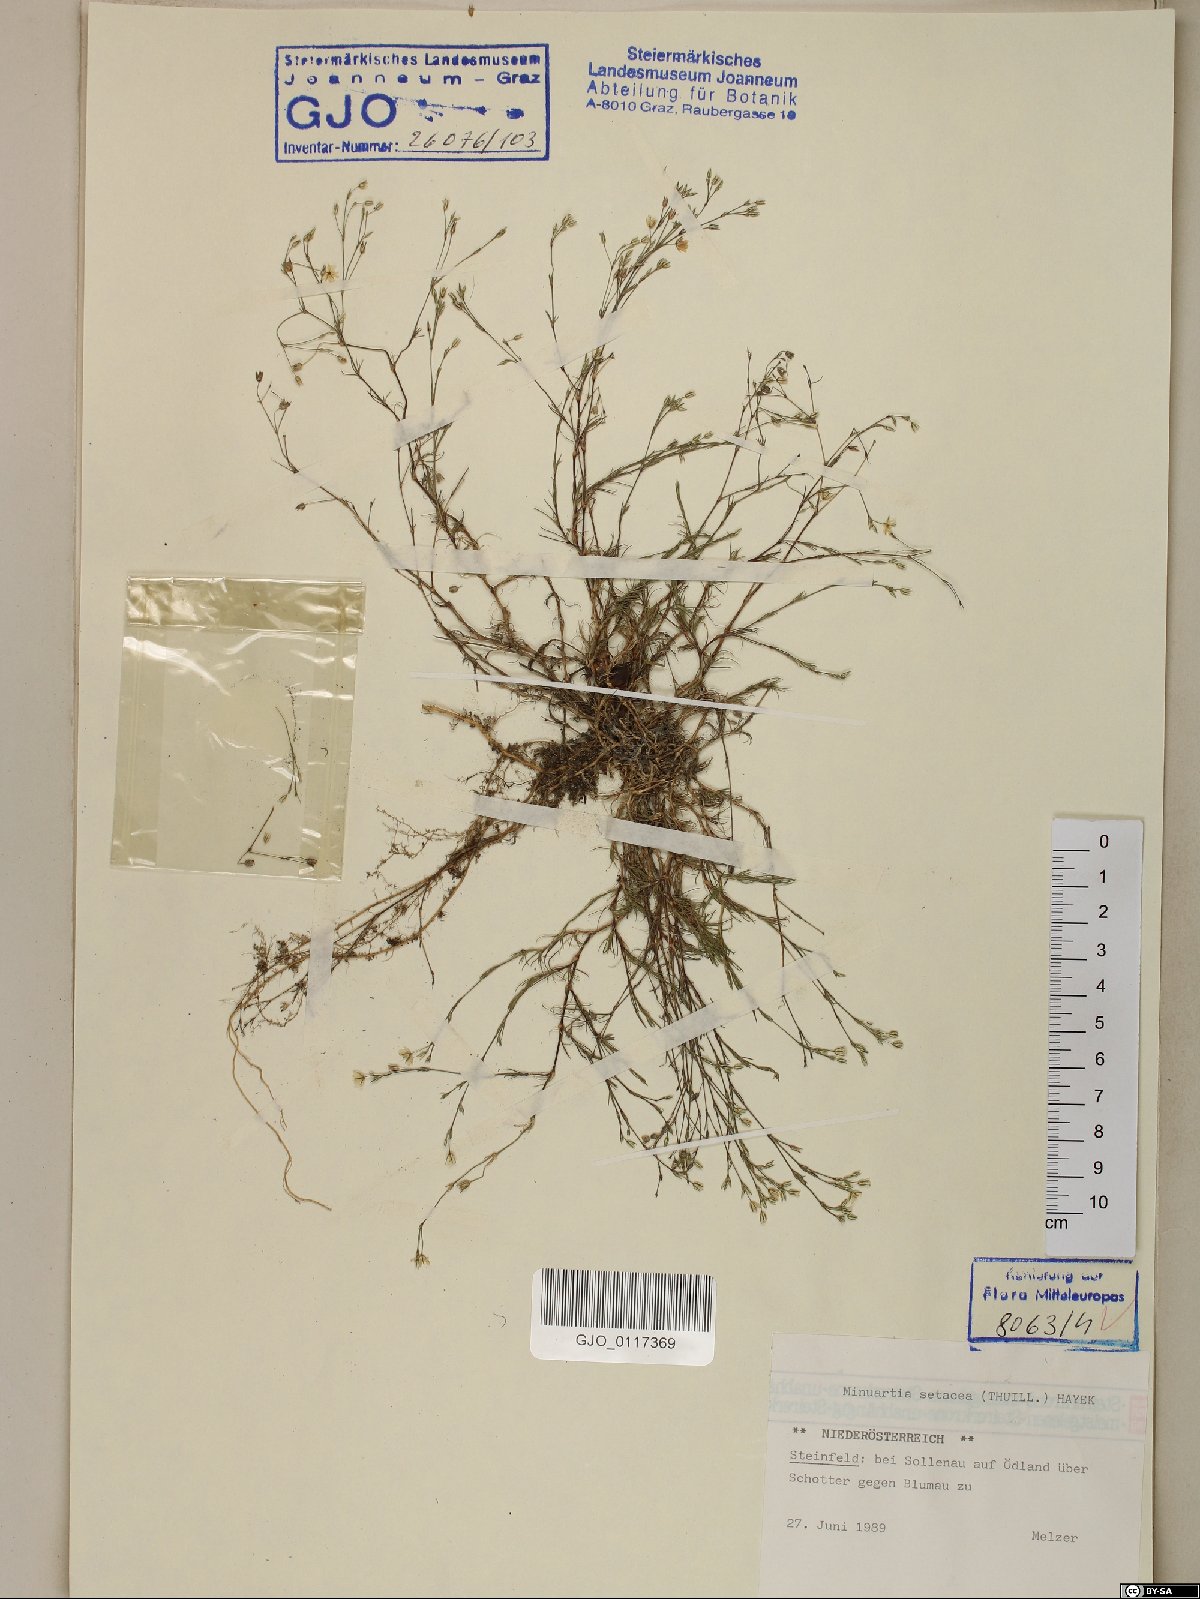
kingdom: Plantae
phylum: Tracheophyta
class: Magnoliopsida
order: Caryophyllales
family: Caryophyllaceae
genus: Minuartia
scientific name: Minuartia setacea
